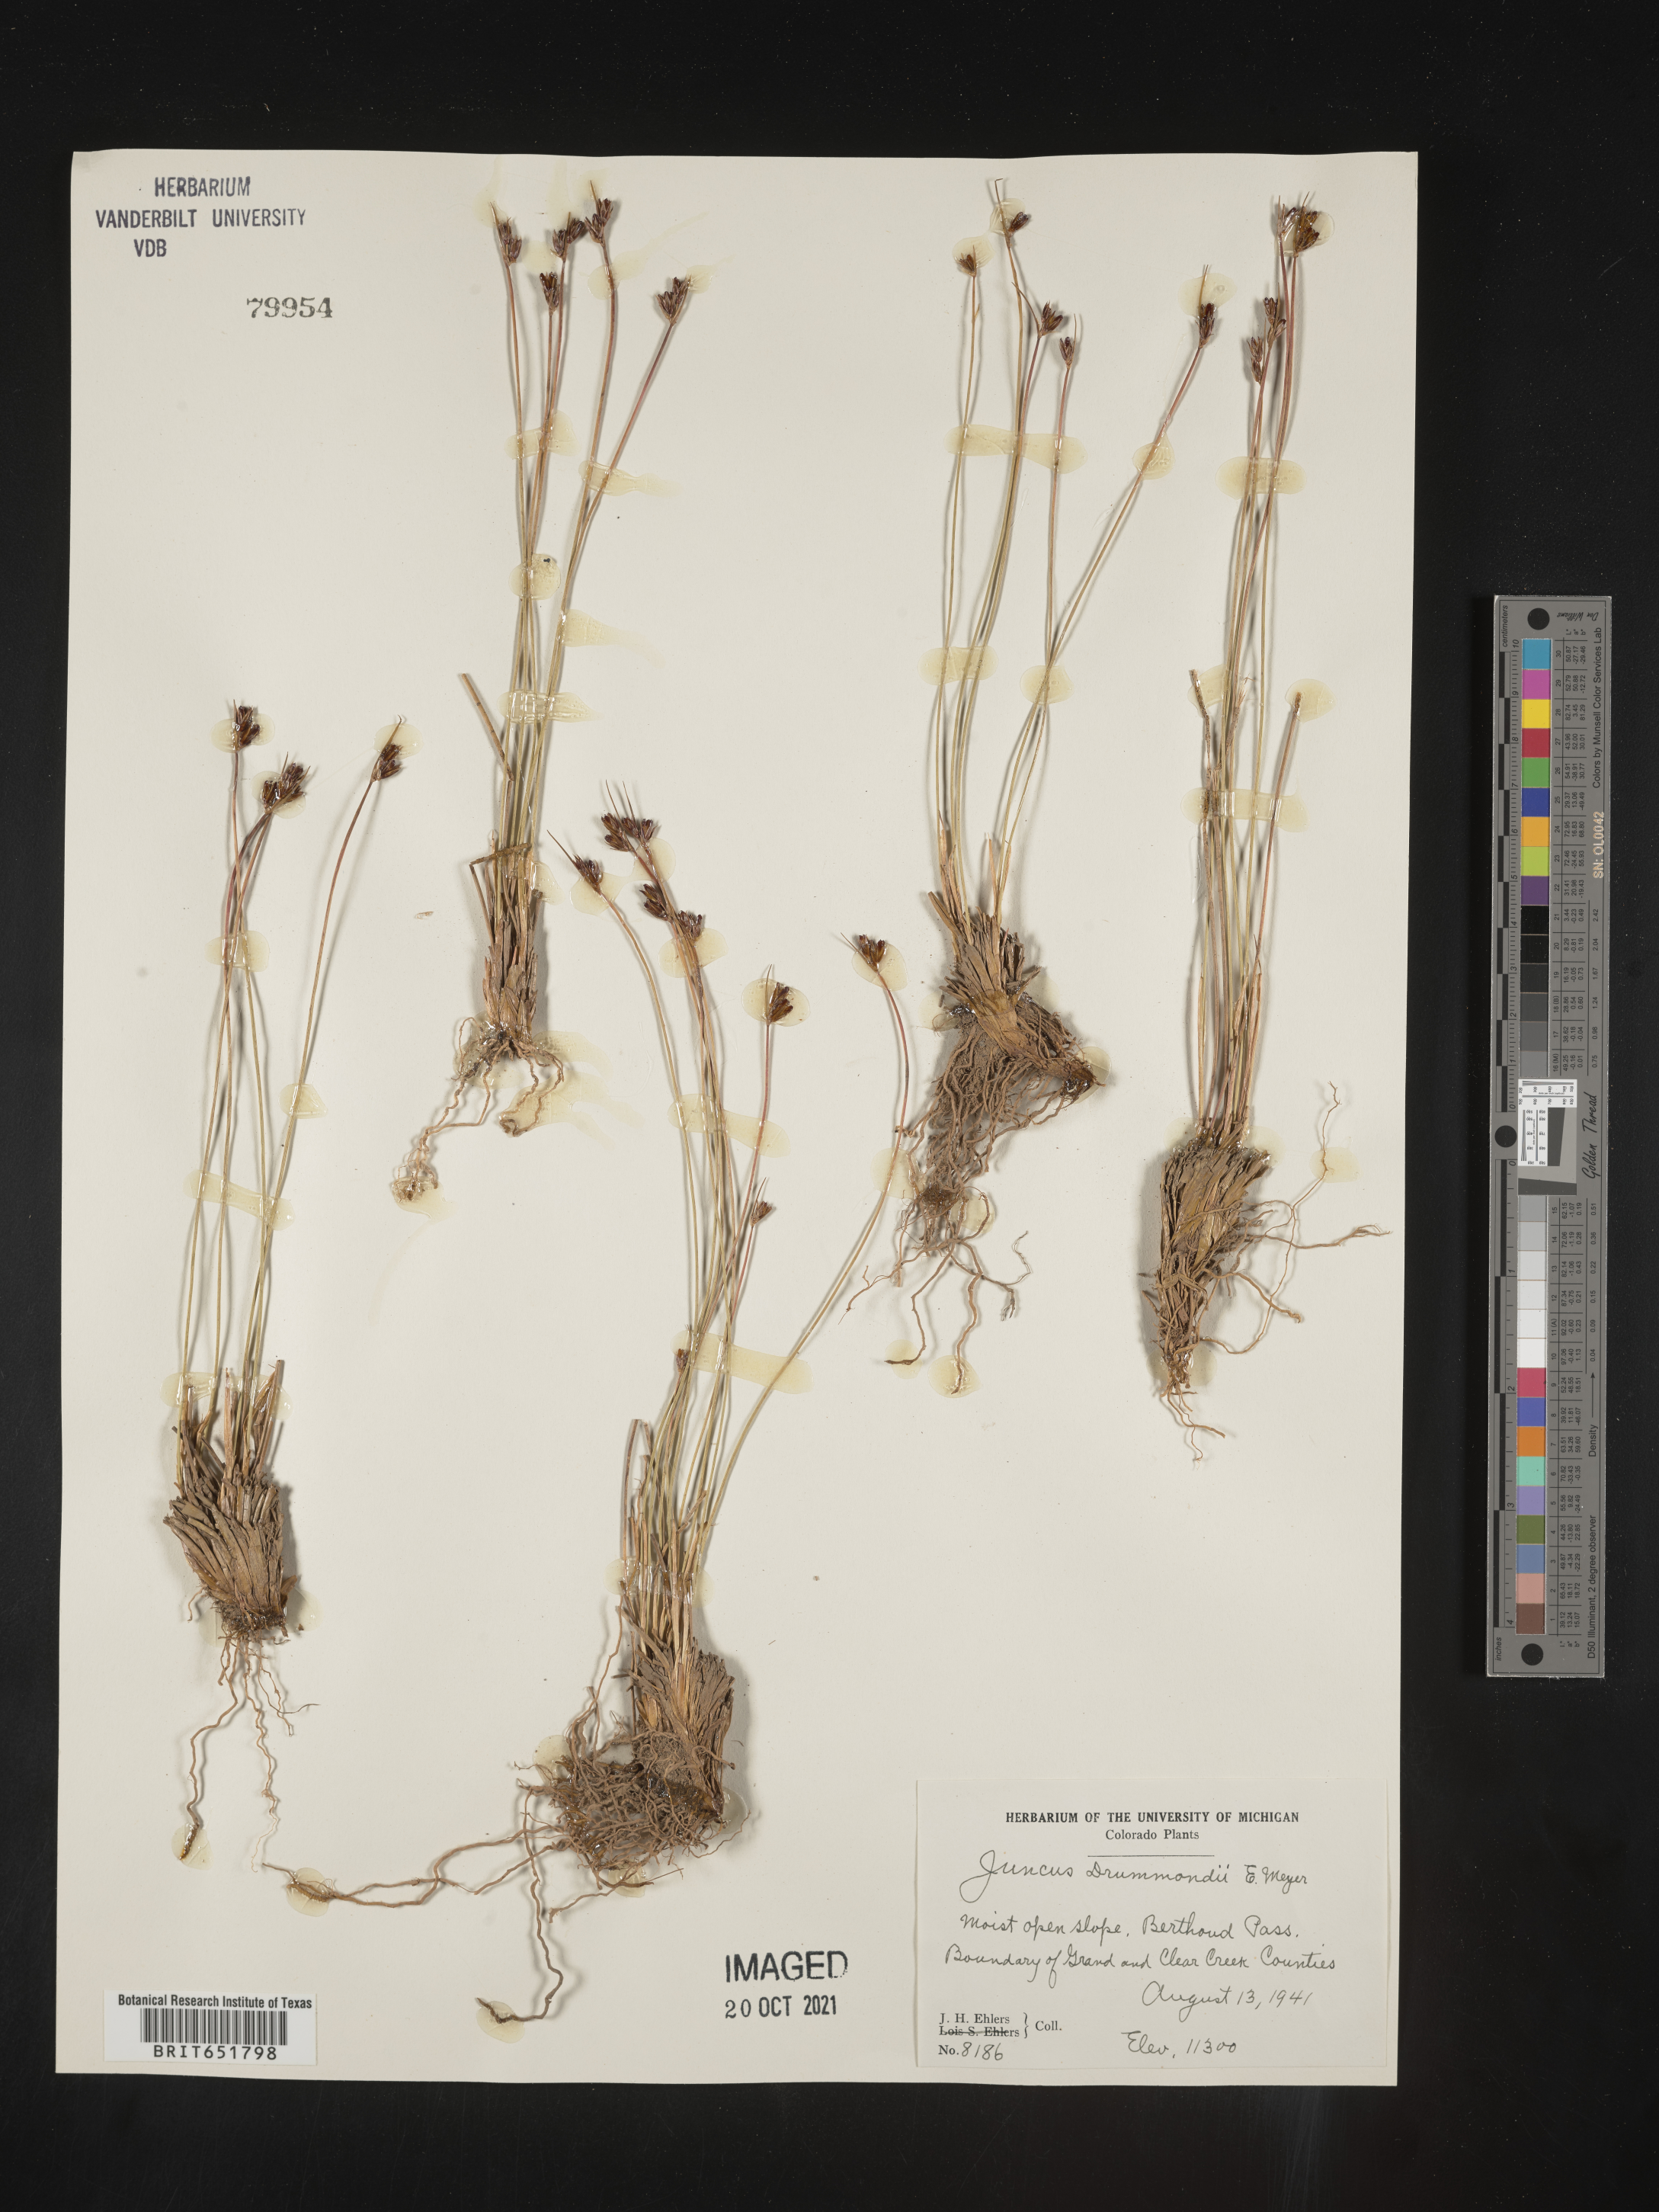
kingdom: Plantae
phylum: Tracheophyta
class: Liliopsida
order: Poales
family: Juncaceae
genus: Juncus
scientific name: Juncus drummondii
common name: Drummond's rush
